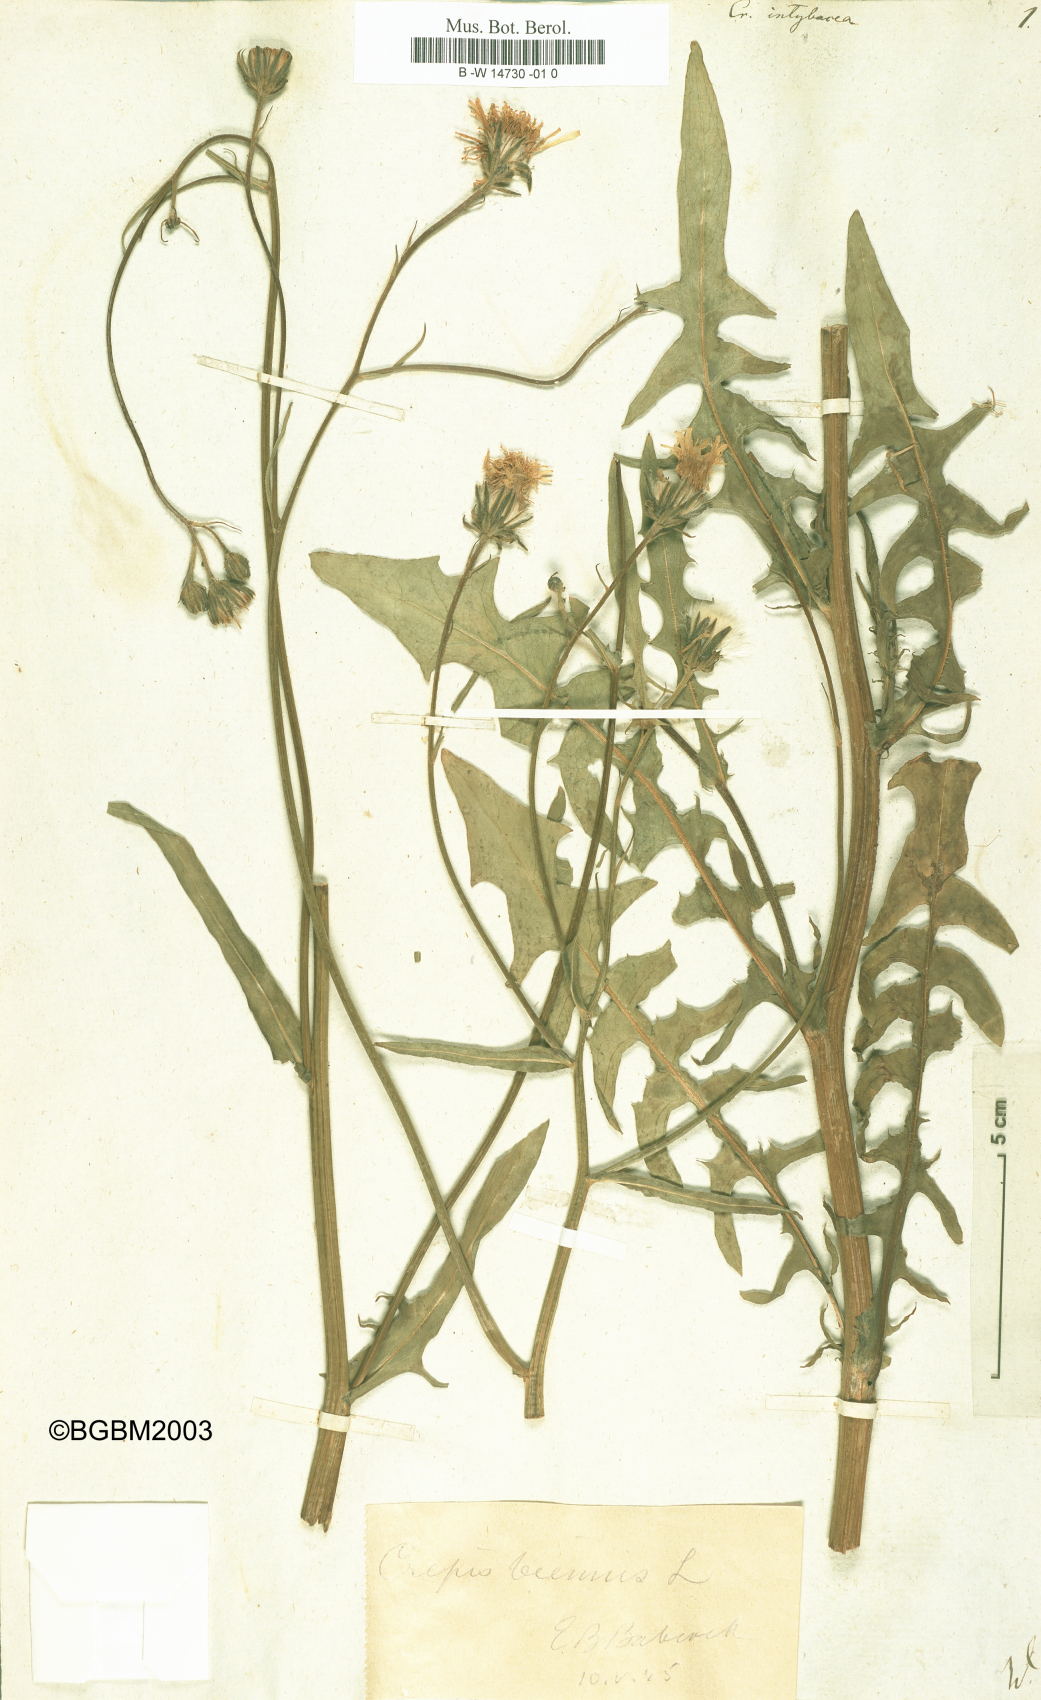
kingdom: Plantae
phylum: Tracheophyta
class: Magnoliopsida
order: Asterales
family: Asteraceae
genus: Crepis
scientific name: Crepis vesicaria
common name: Beaked hawksbeard
